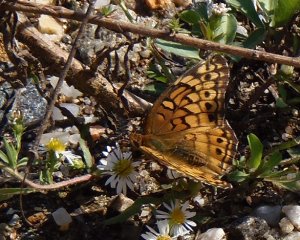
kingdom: Animalia
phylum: Arthropoda
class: Insecta
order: Lepidoptera
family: Nymphalidae
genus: Euptoieta
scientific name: Euptoieta claudia
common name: Variegated Fritillary
